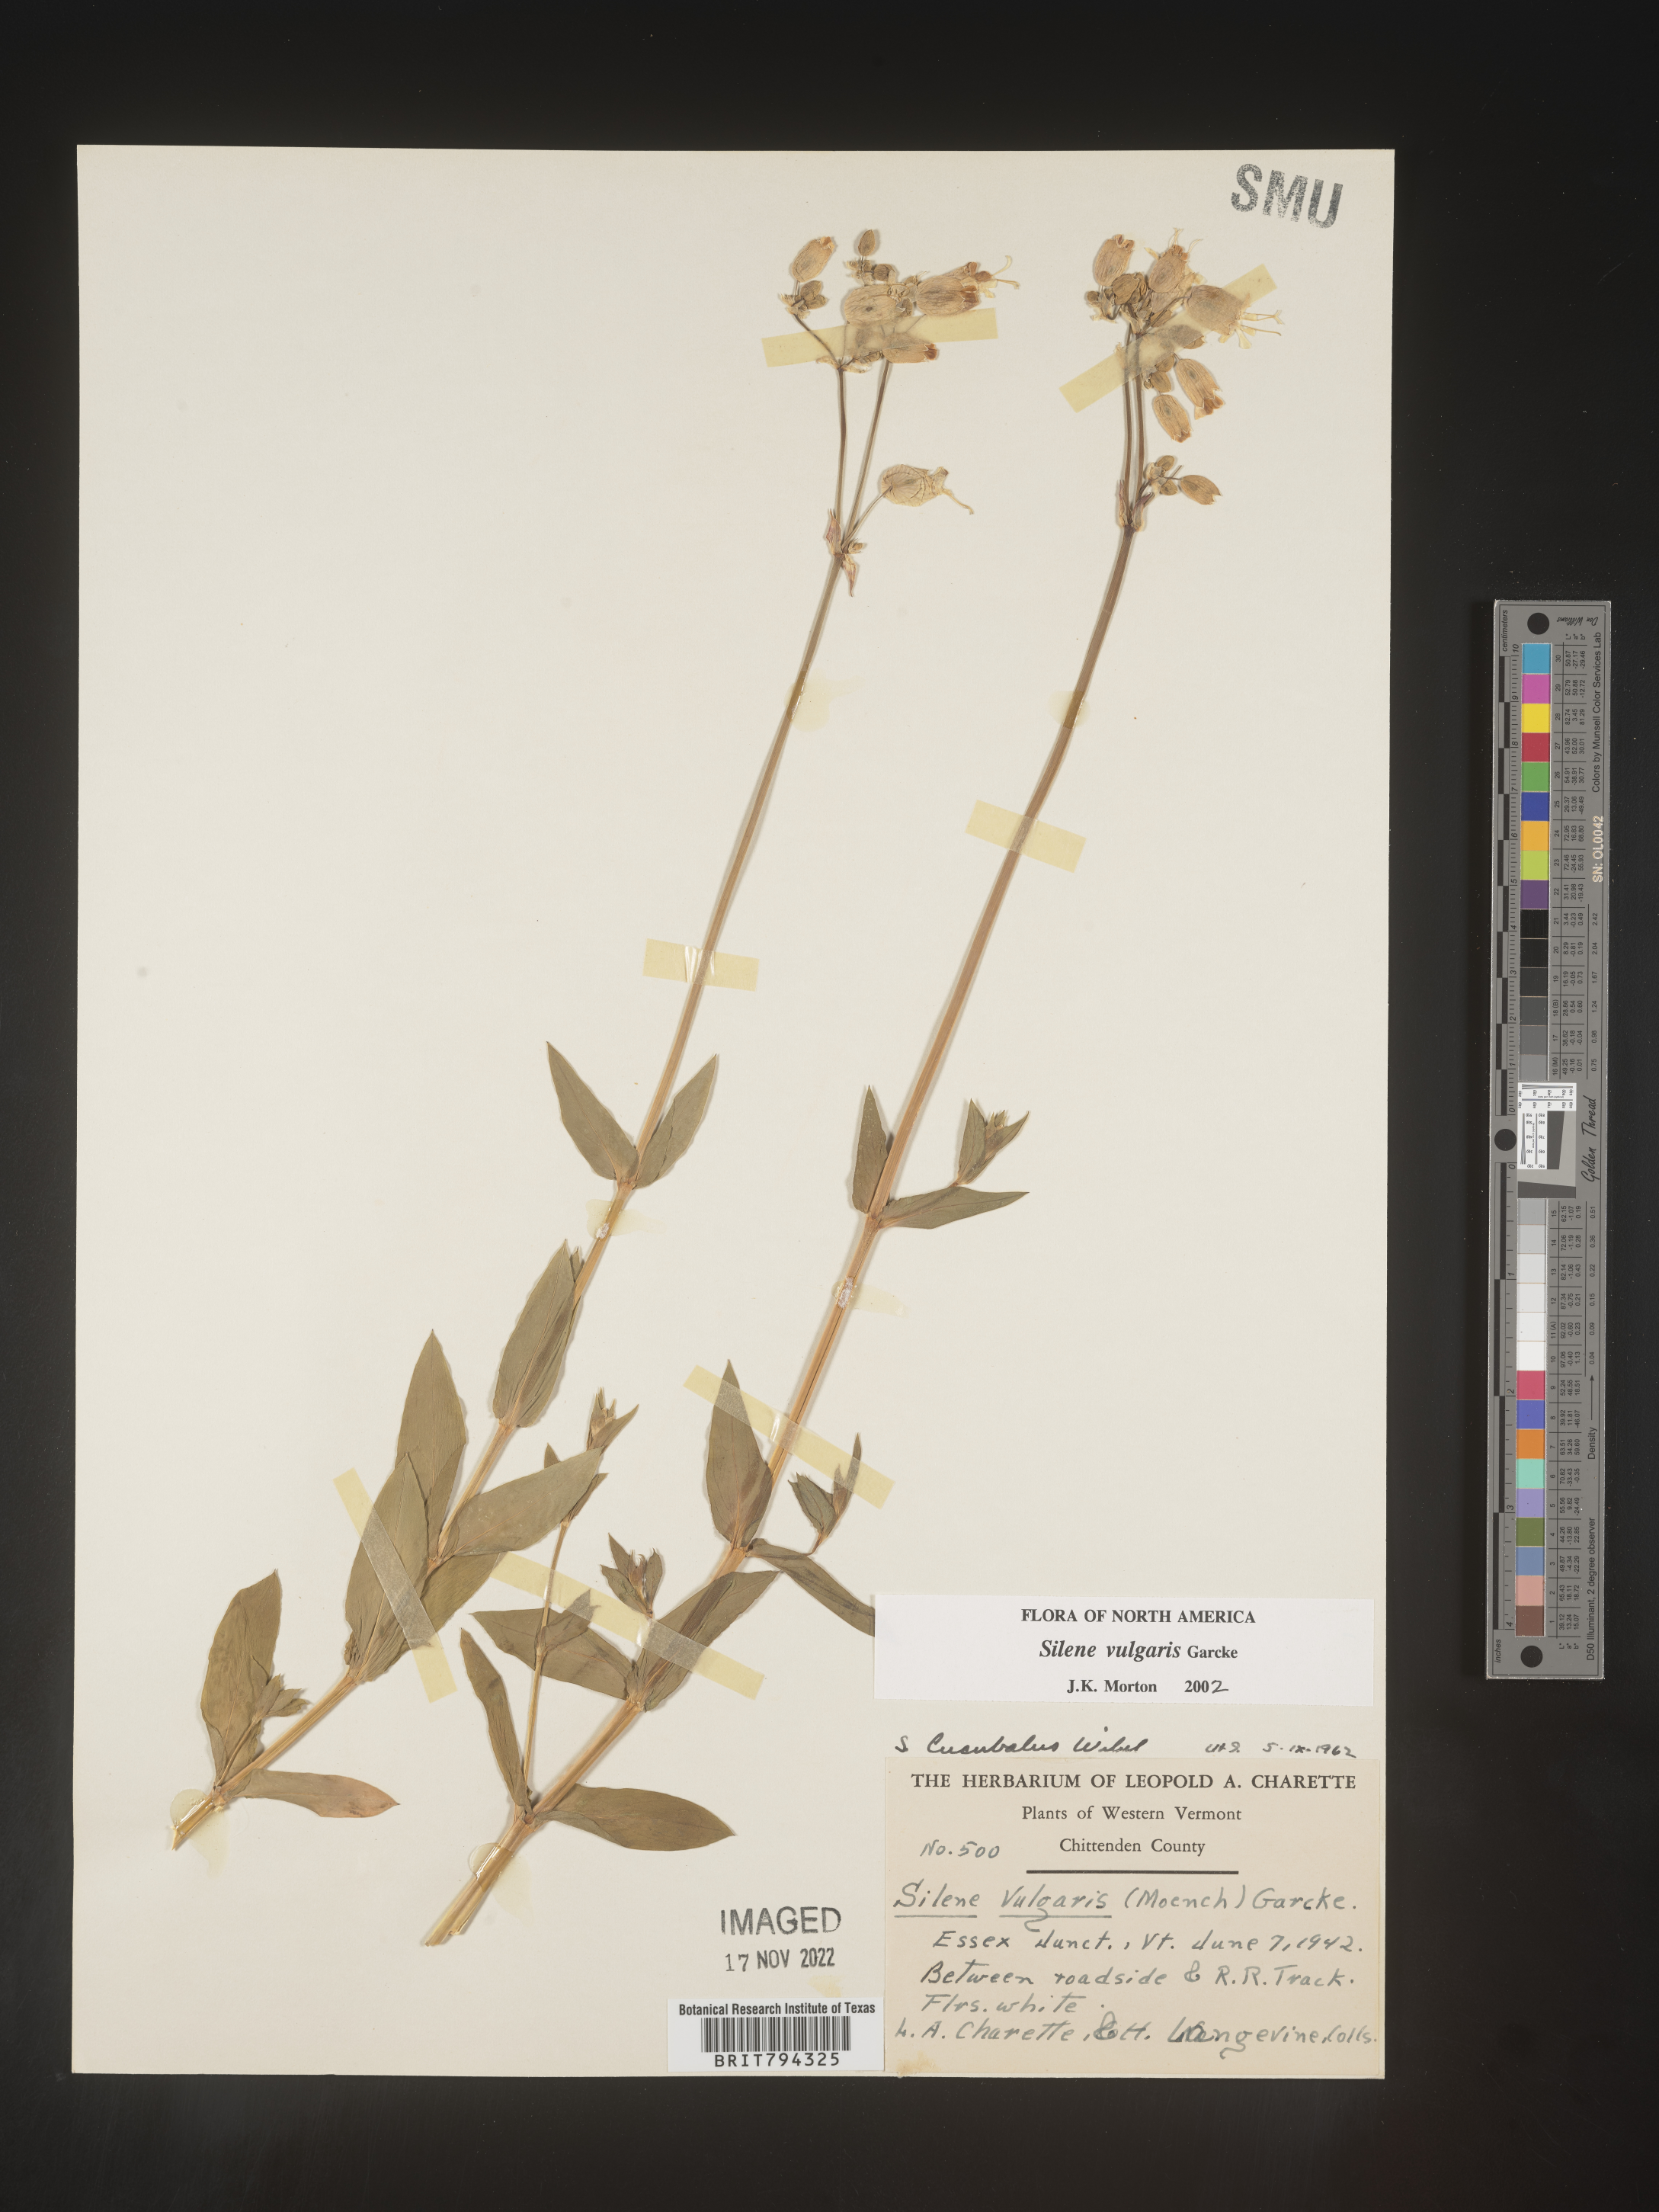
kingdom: Plantae
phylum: Tracheophyta
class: Magnoliopsida
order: Caryophyllales
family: Caryophyllaceae
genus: Silene
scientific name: Silene vulgaris
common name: Bladder campion
